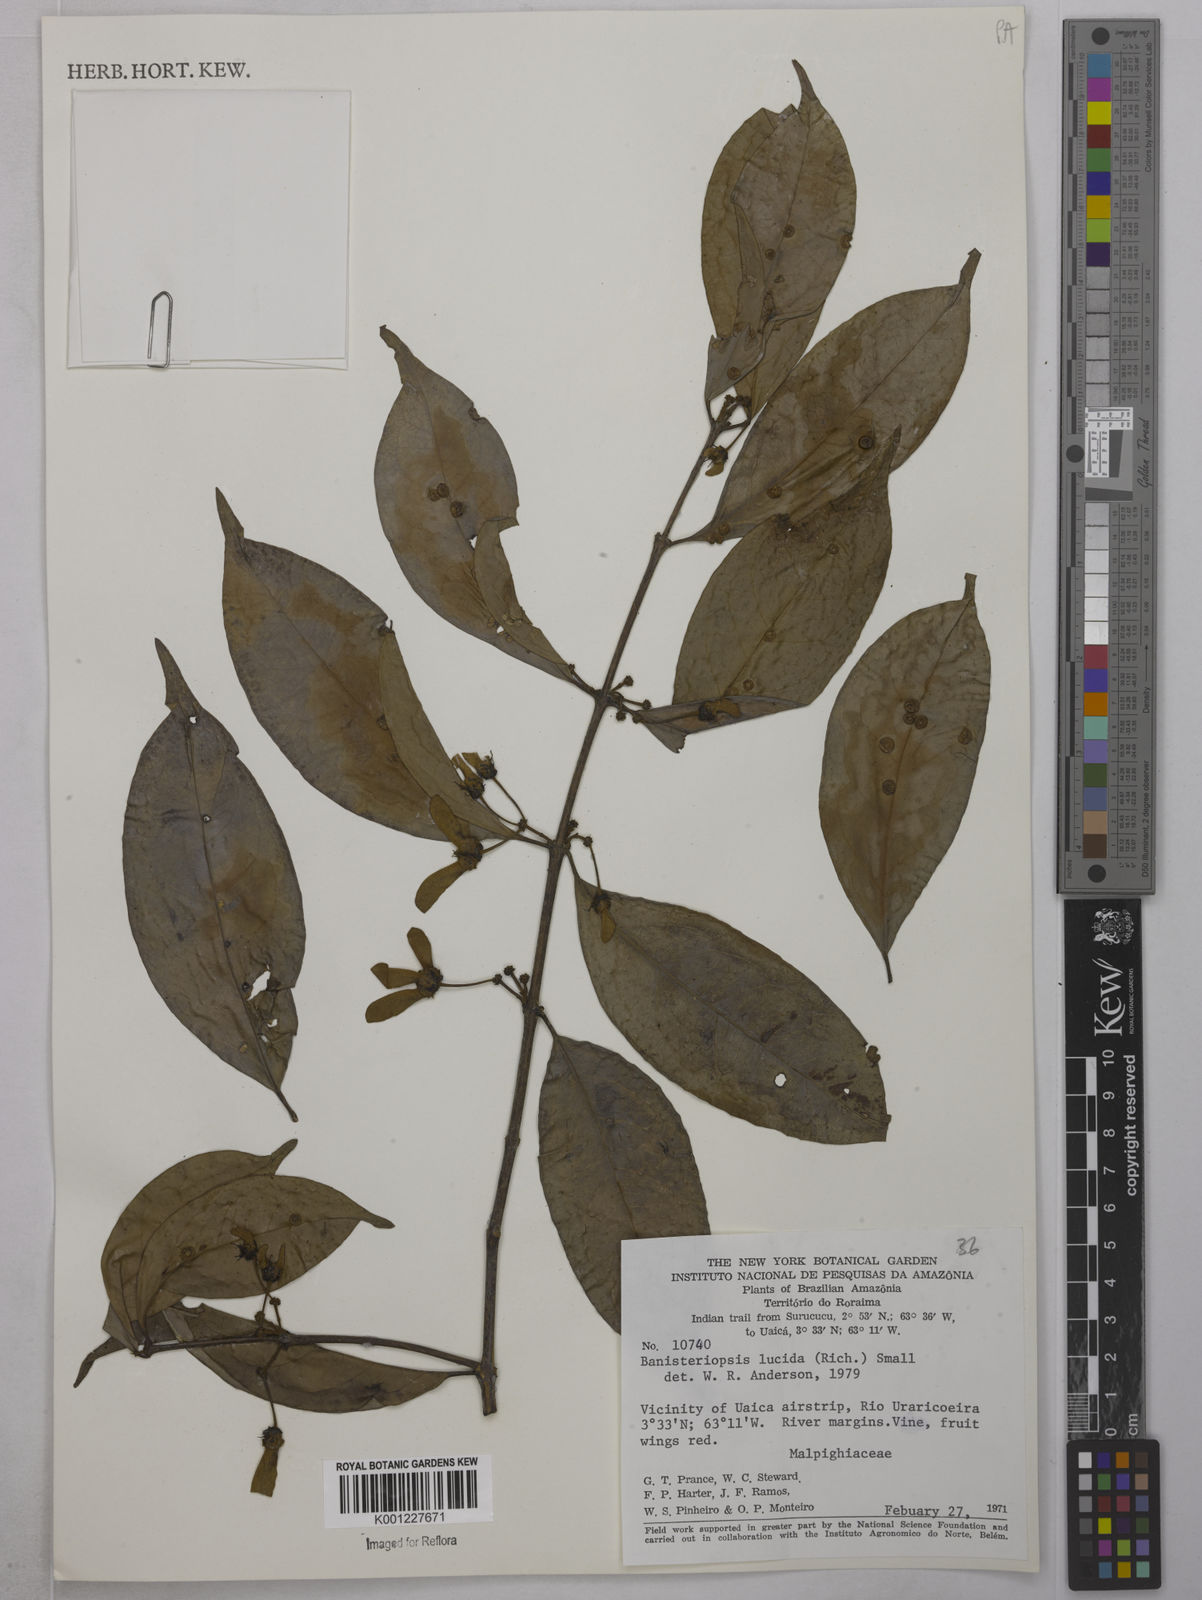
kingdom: Plantae
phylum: Tracheophyta
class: Magnoliopsida
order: Malpighiales
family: Malpighiaceae
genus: Diplopterys
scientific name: Diplopterys lucida
